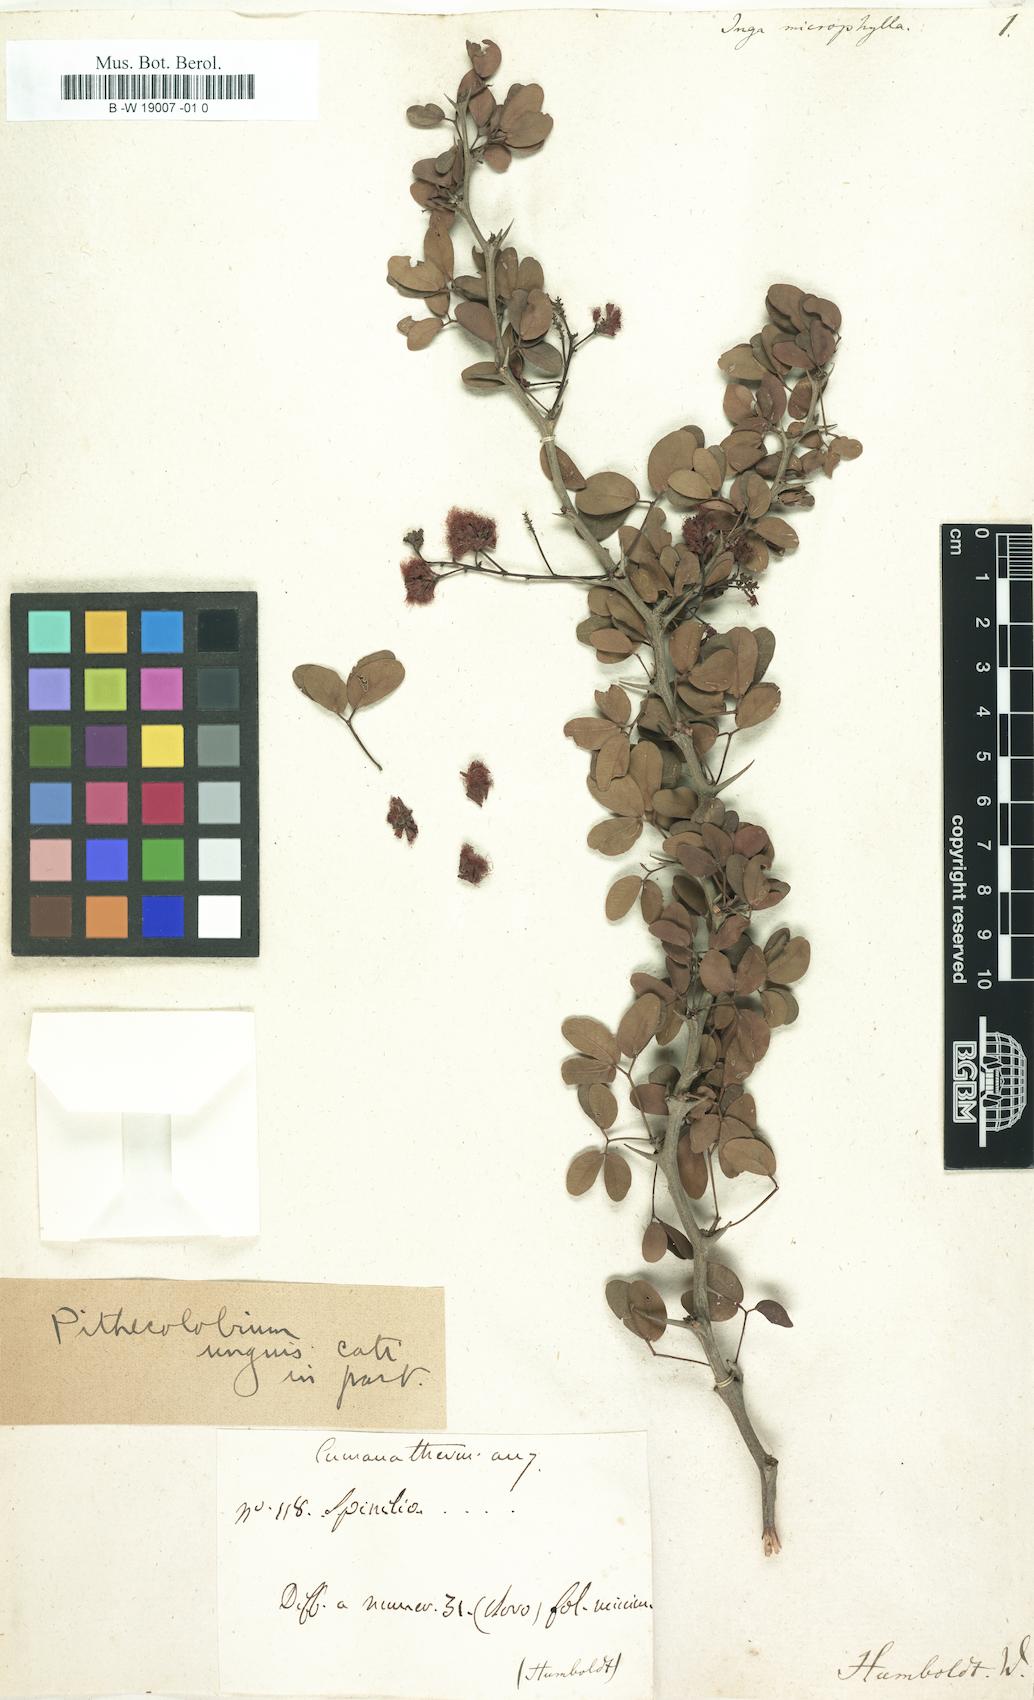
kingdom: Plantae
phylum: Tracheophyta
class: Magnoliopsida
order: Fabales
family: Fabaceae
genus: Pithecellobium
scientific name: Pithecellobium unguis-cati
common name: Cat's-claw
